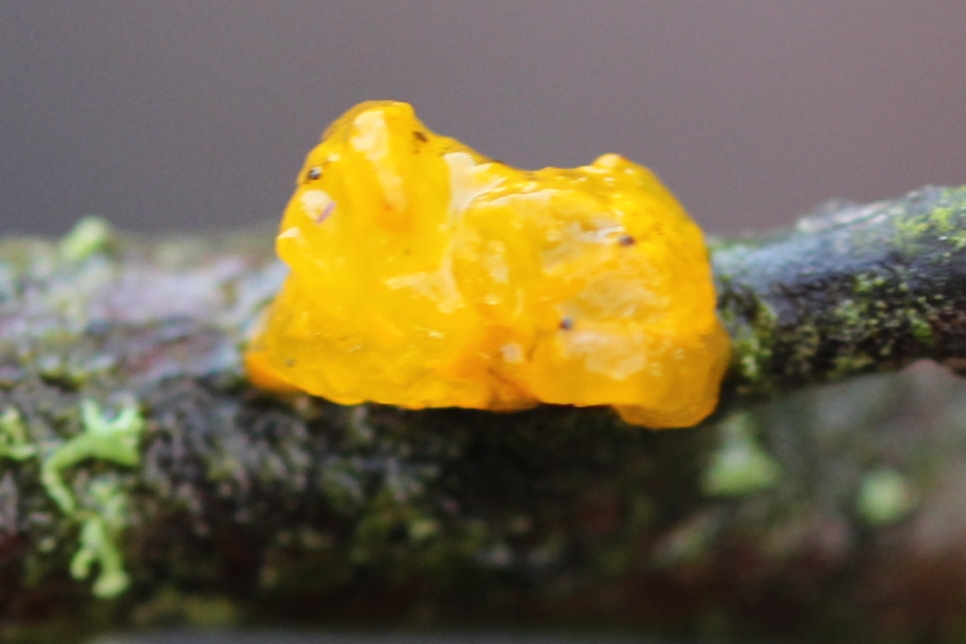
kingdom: Fungi
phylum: Basidiomycota
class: Tremellomycetes
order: Tremellales
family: Tremellaceae
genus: Tremella
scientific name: Tremella mesenterica
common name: gul bævresvamp
